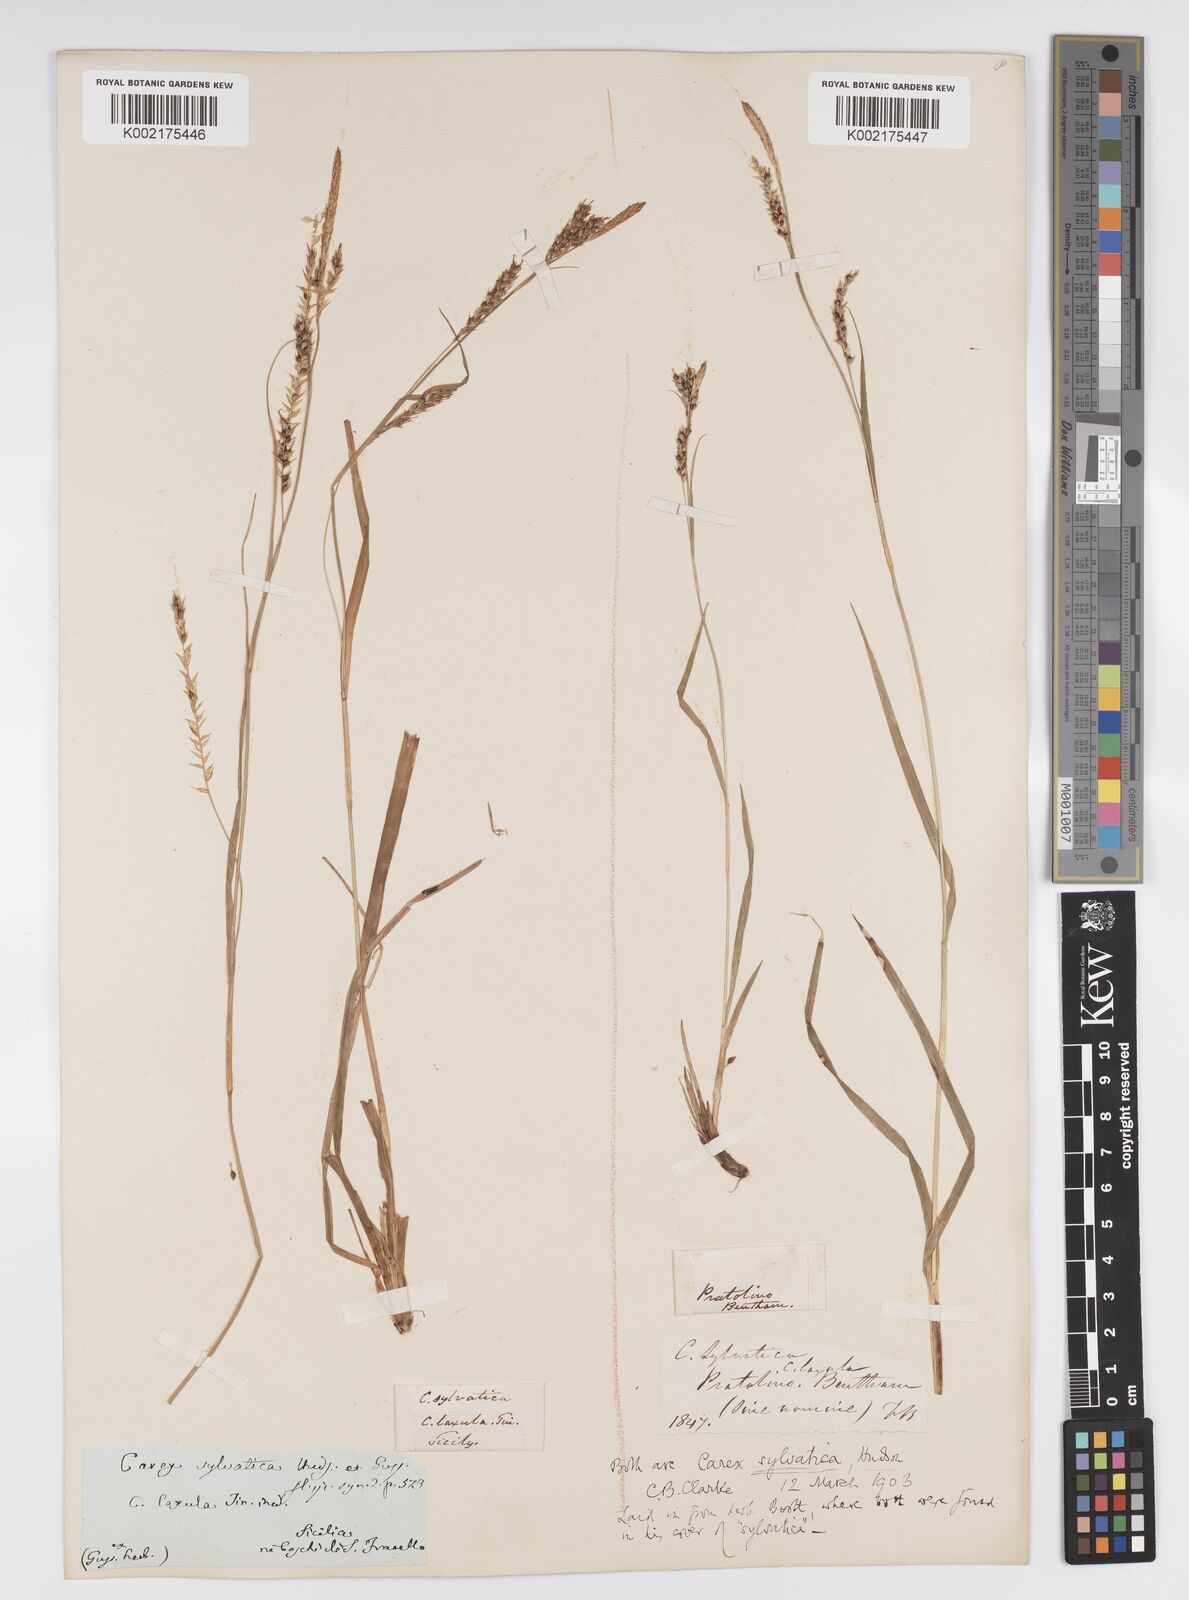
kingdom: Plantae
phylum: Tracheophyta
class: Liliopsida
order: Poales
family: Cyperaceae
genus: Carex
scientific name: Carex sylvatica
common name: Wood-sedge
